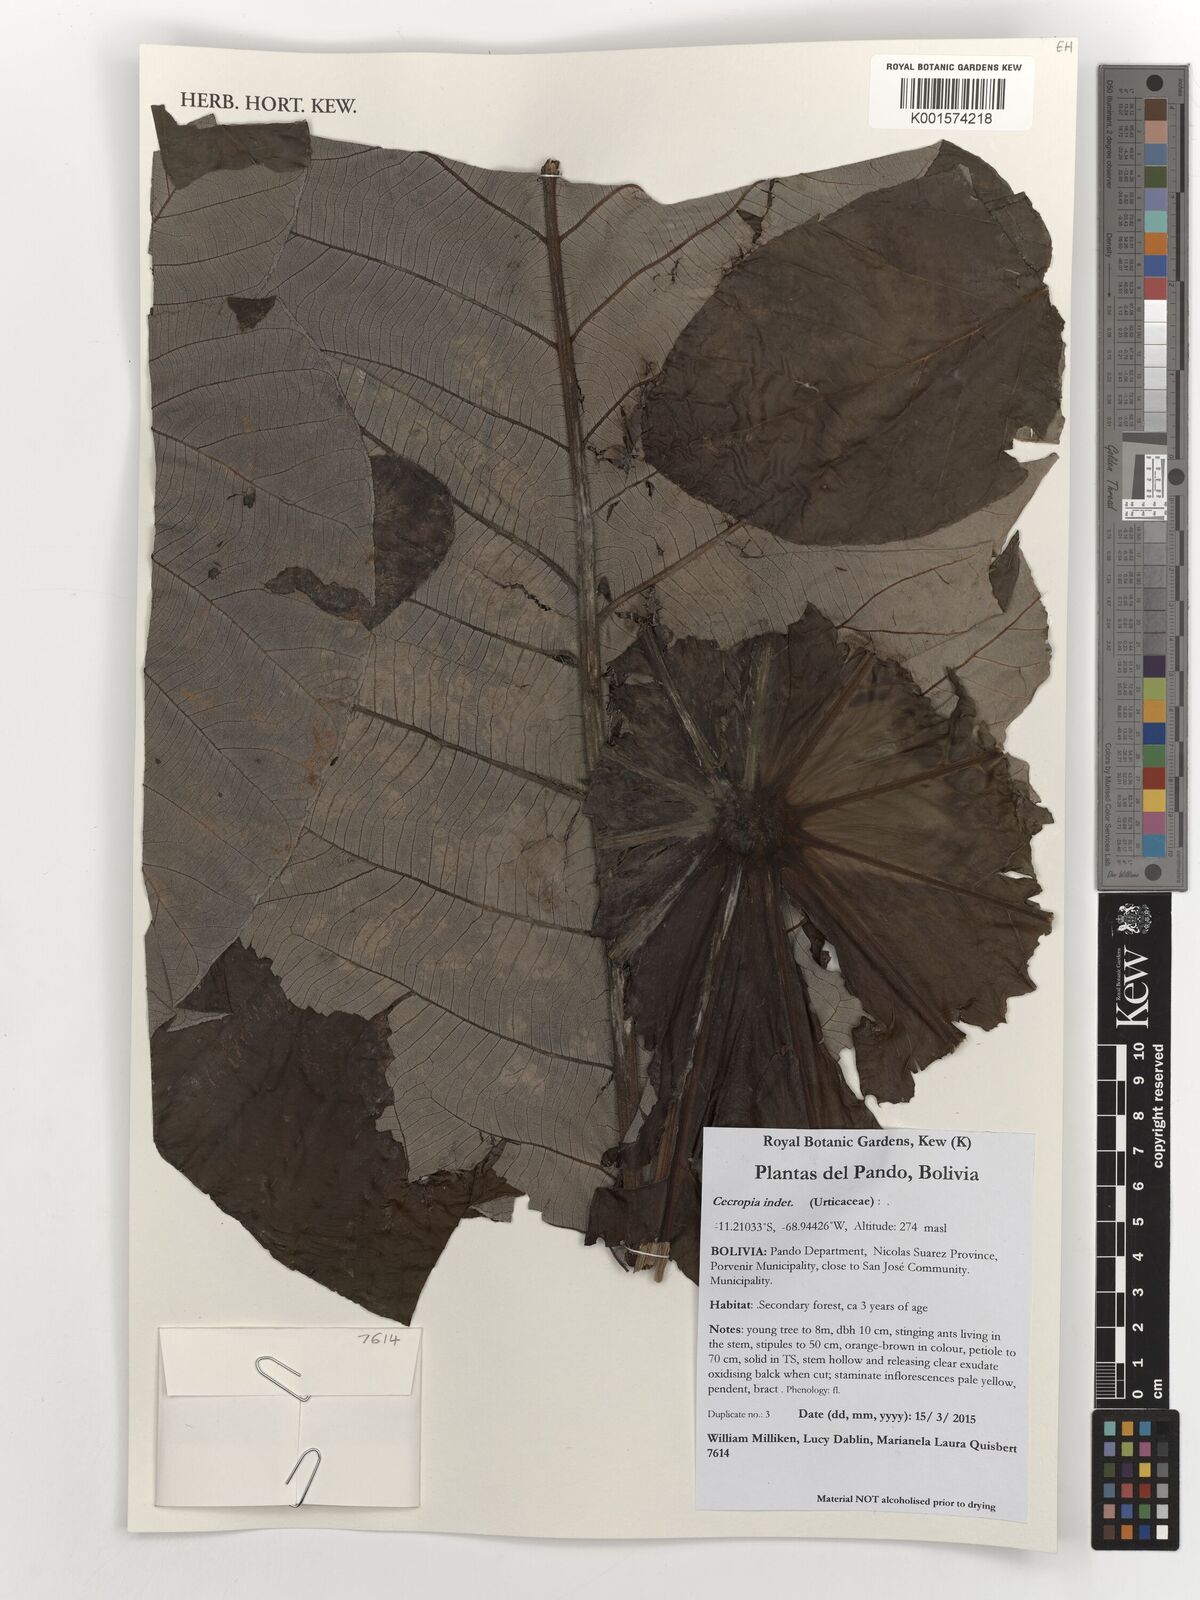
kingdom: Plantae
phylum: Tracheophyta
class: Liliopsida
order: Alismatales
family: Araceae
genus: Monstera
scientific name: Monstera
